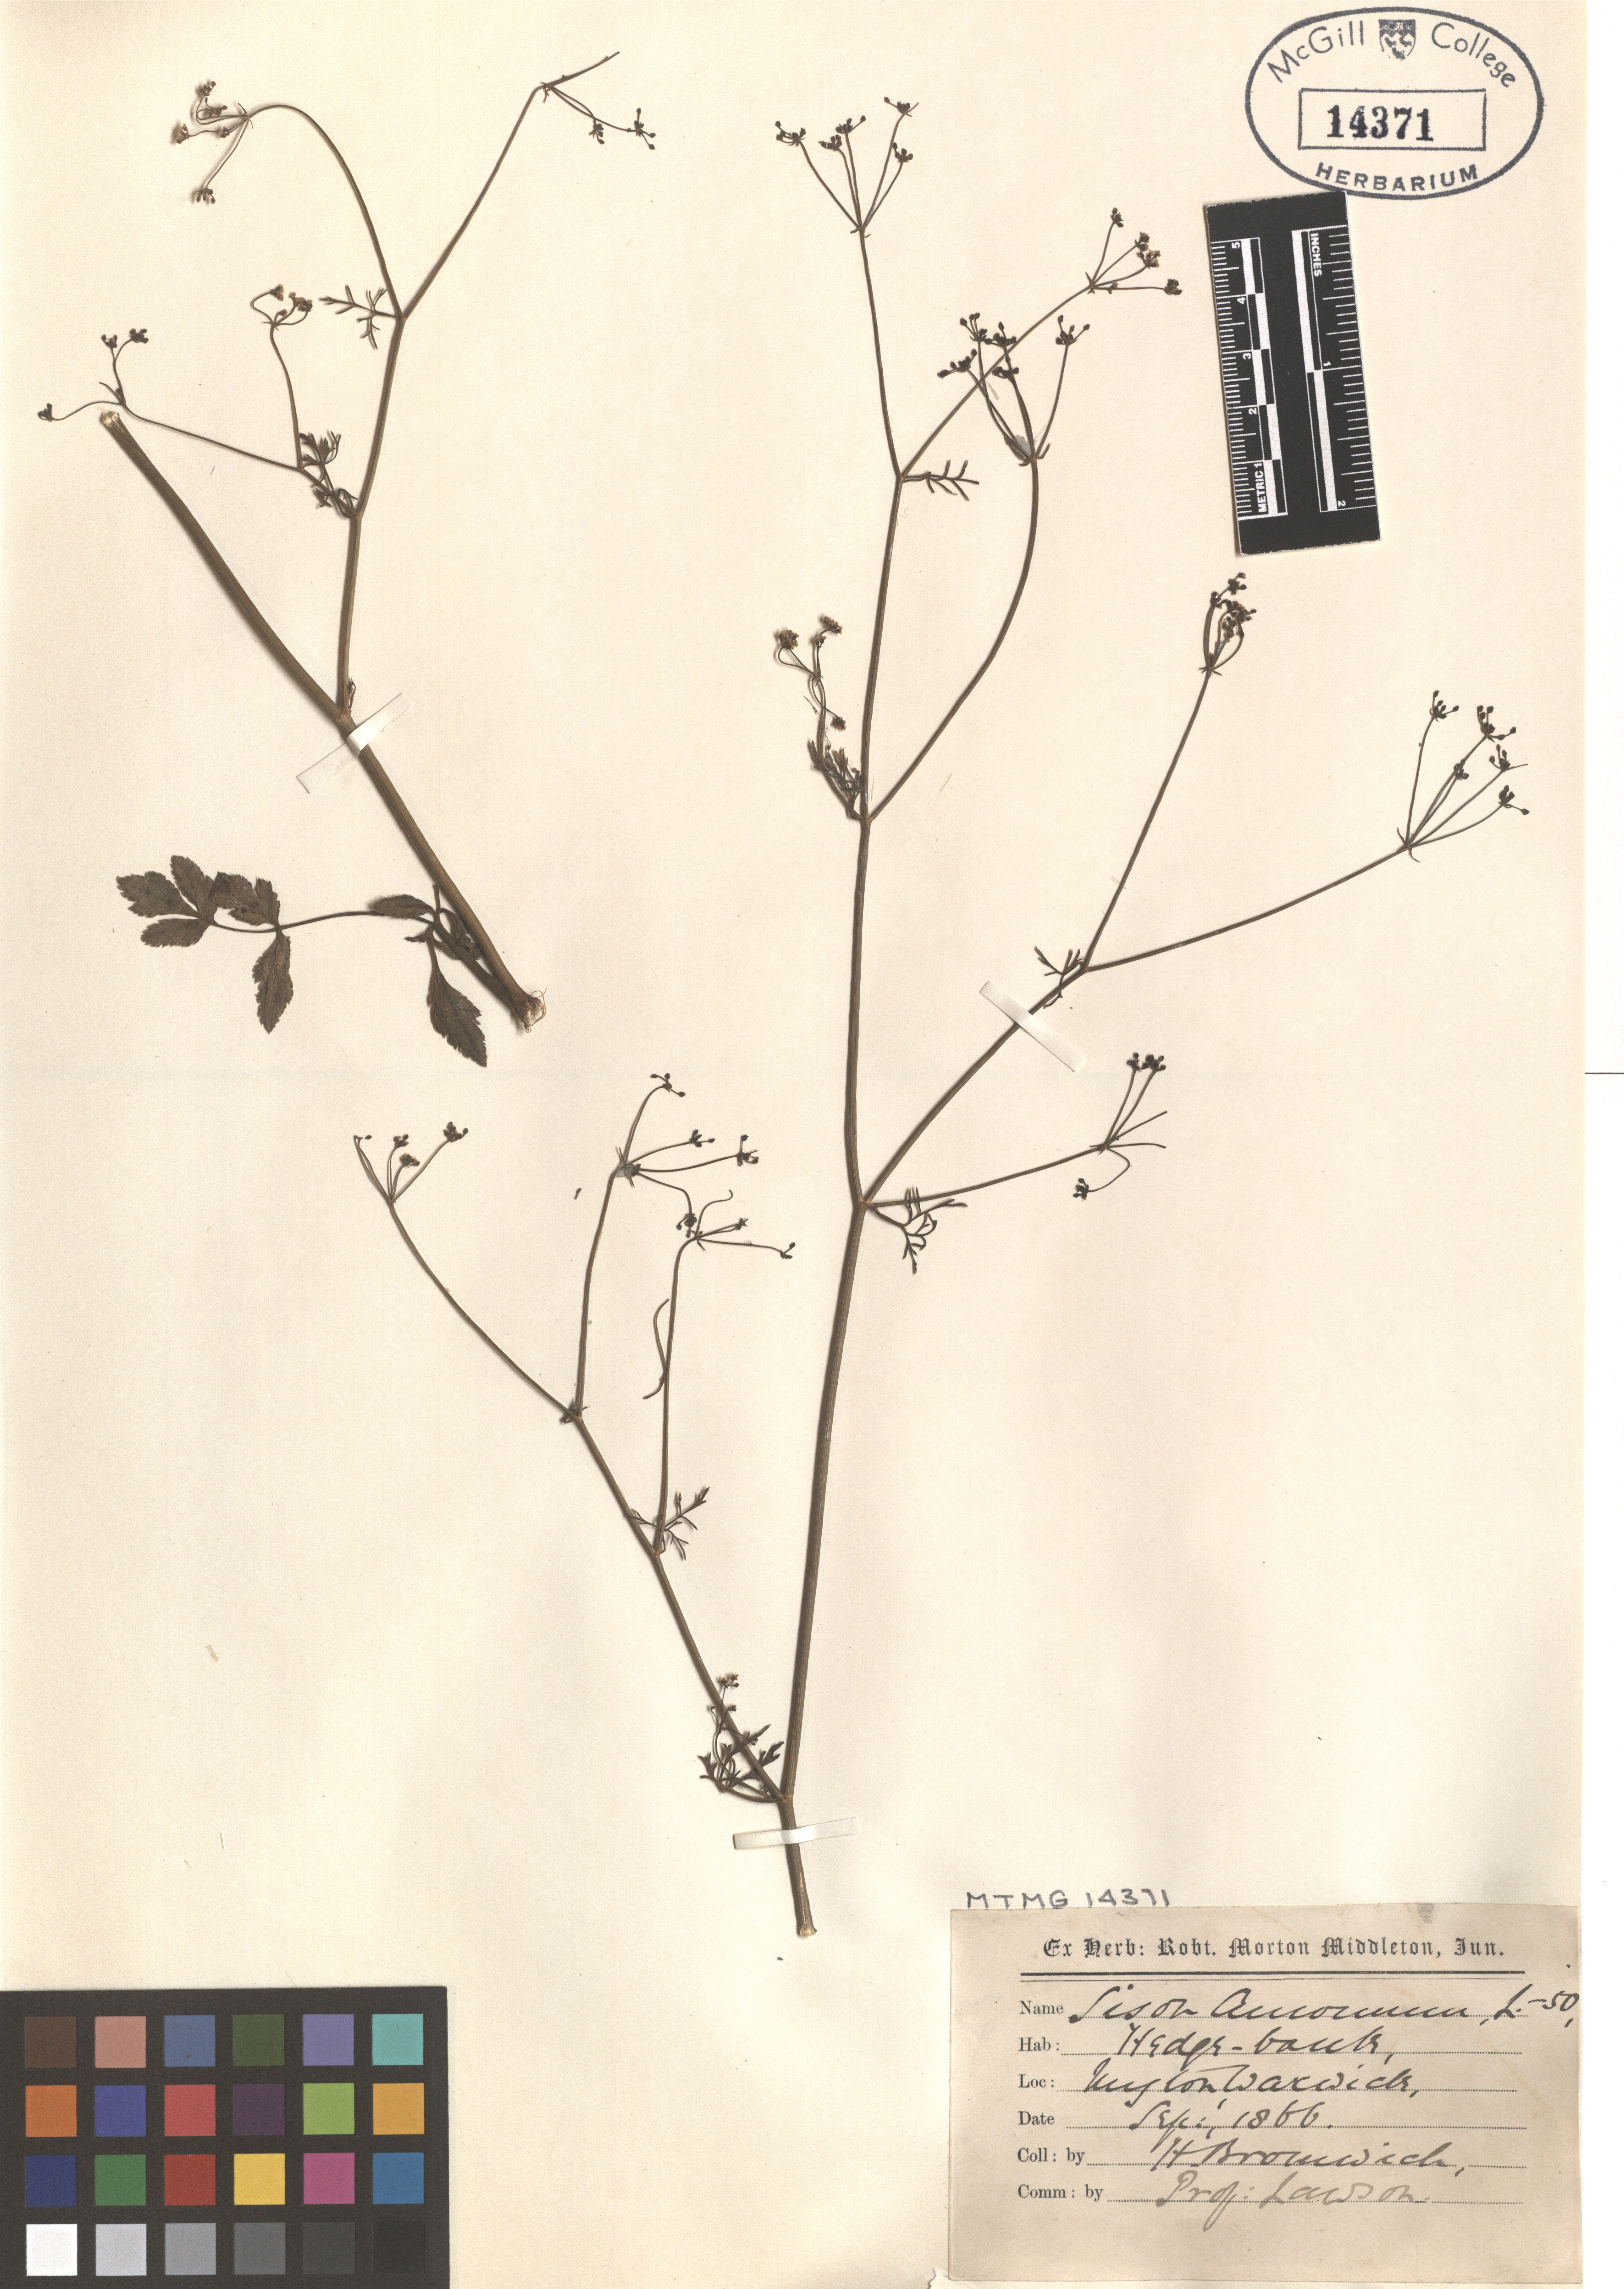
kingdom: Plantae
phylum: Tracheophyta
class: Magnoliopsida
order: Apiales
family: Apiaceae
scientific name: Apiaceae
